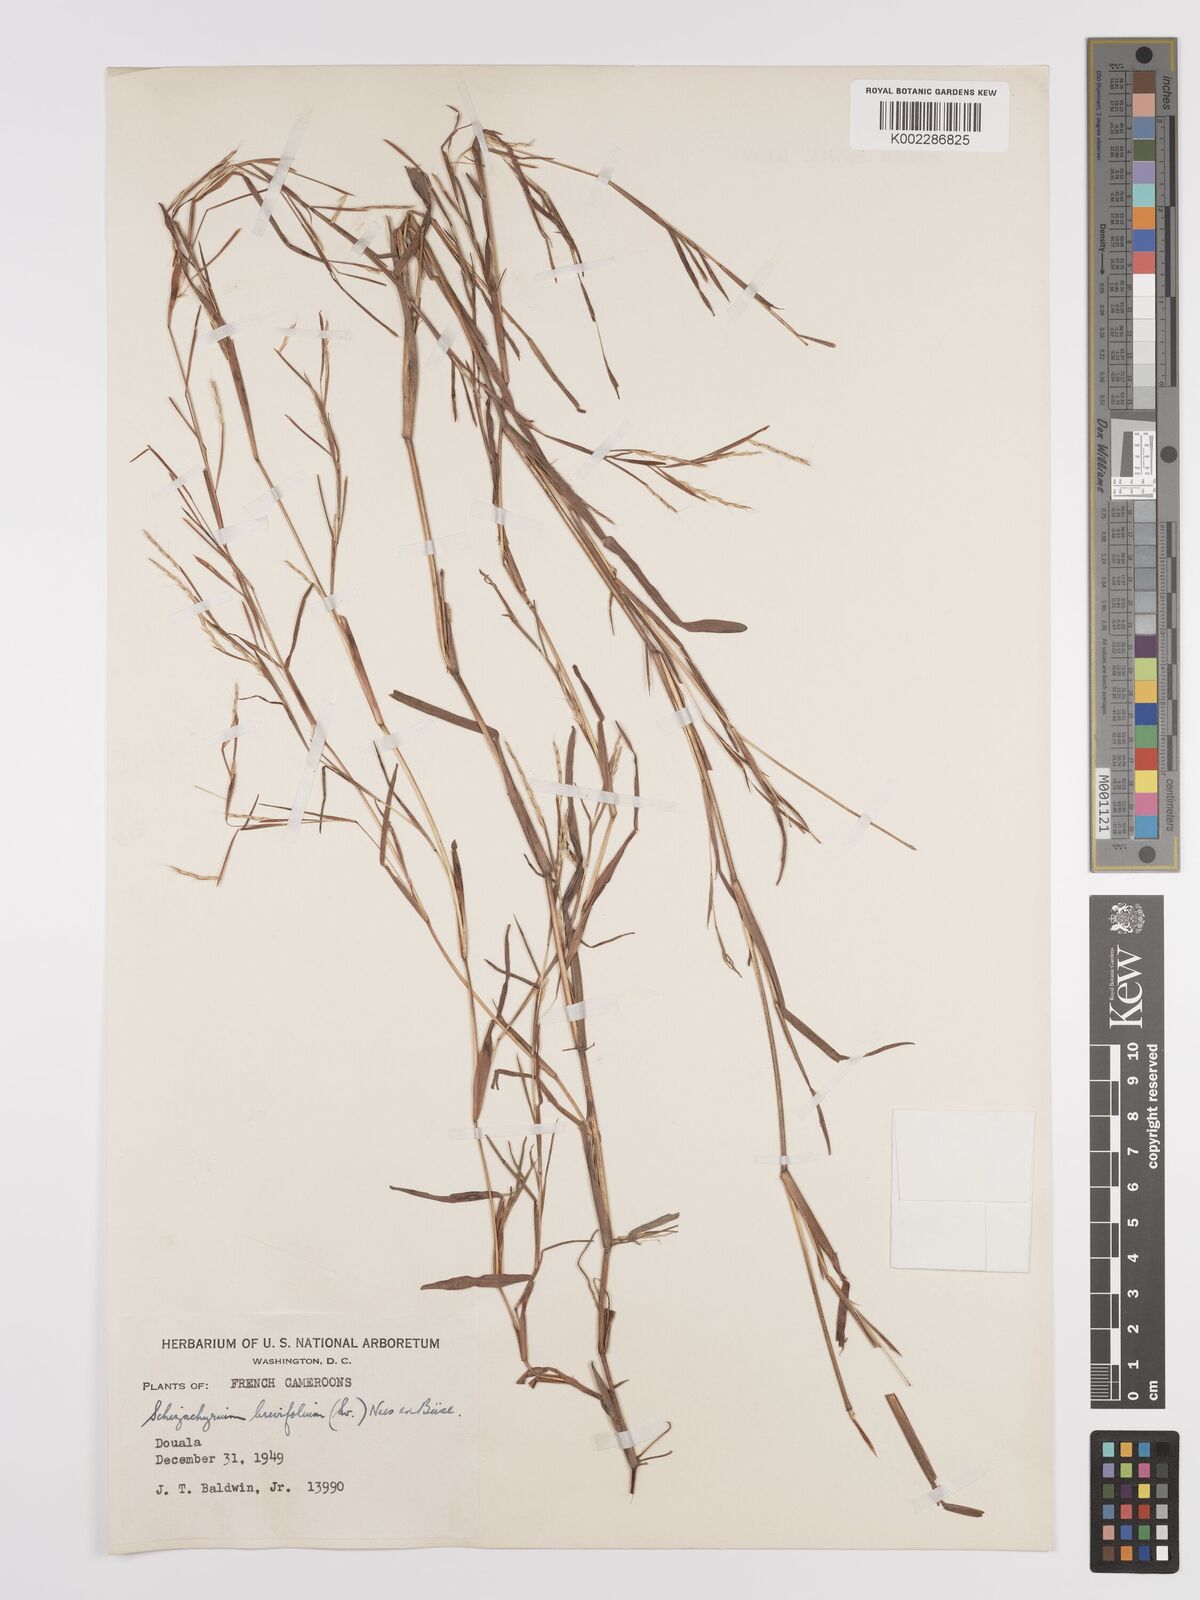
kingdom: Plantae
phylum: Tracheophyta
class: Liliopsida
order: Poales
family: Poaceae
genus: Schizachyrium
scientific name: Schizachyrium maclaudii
